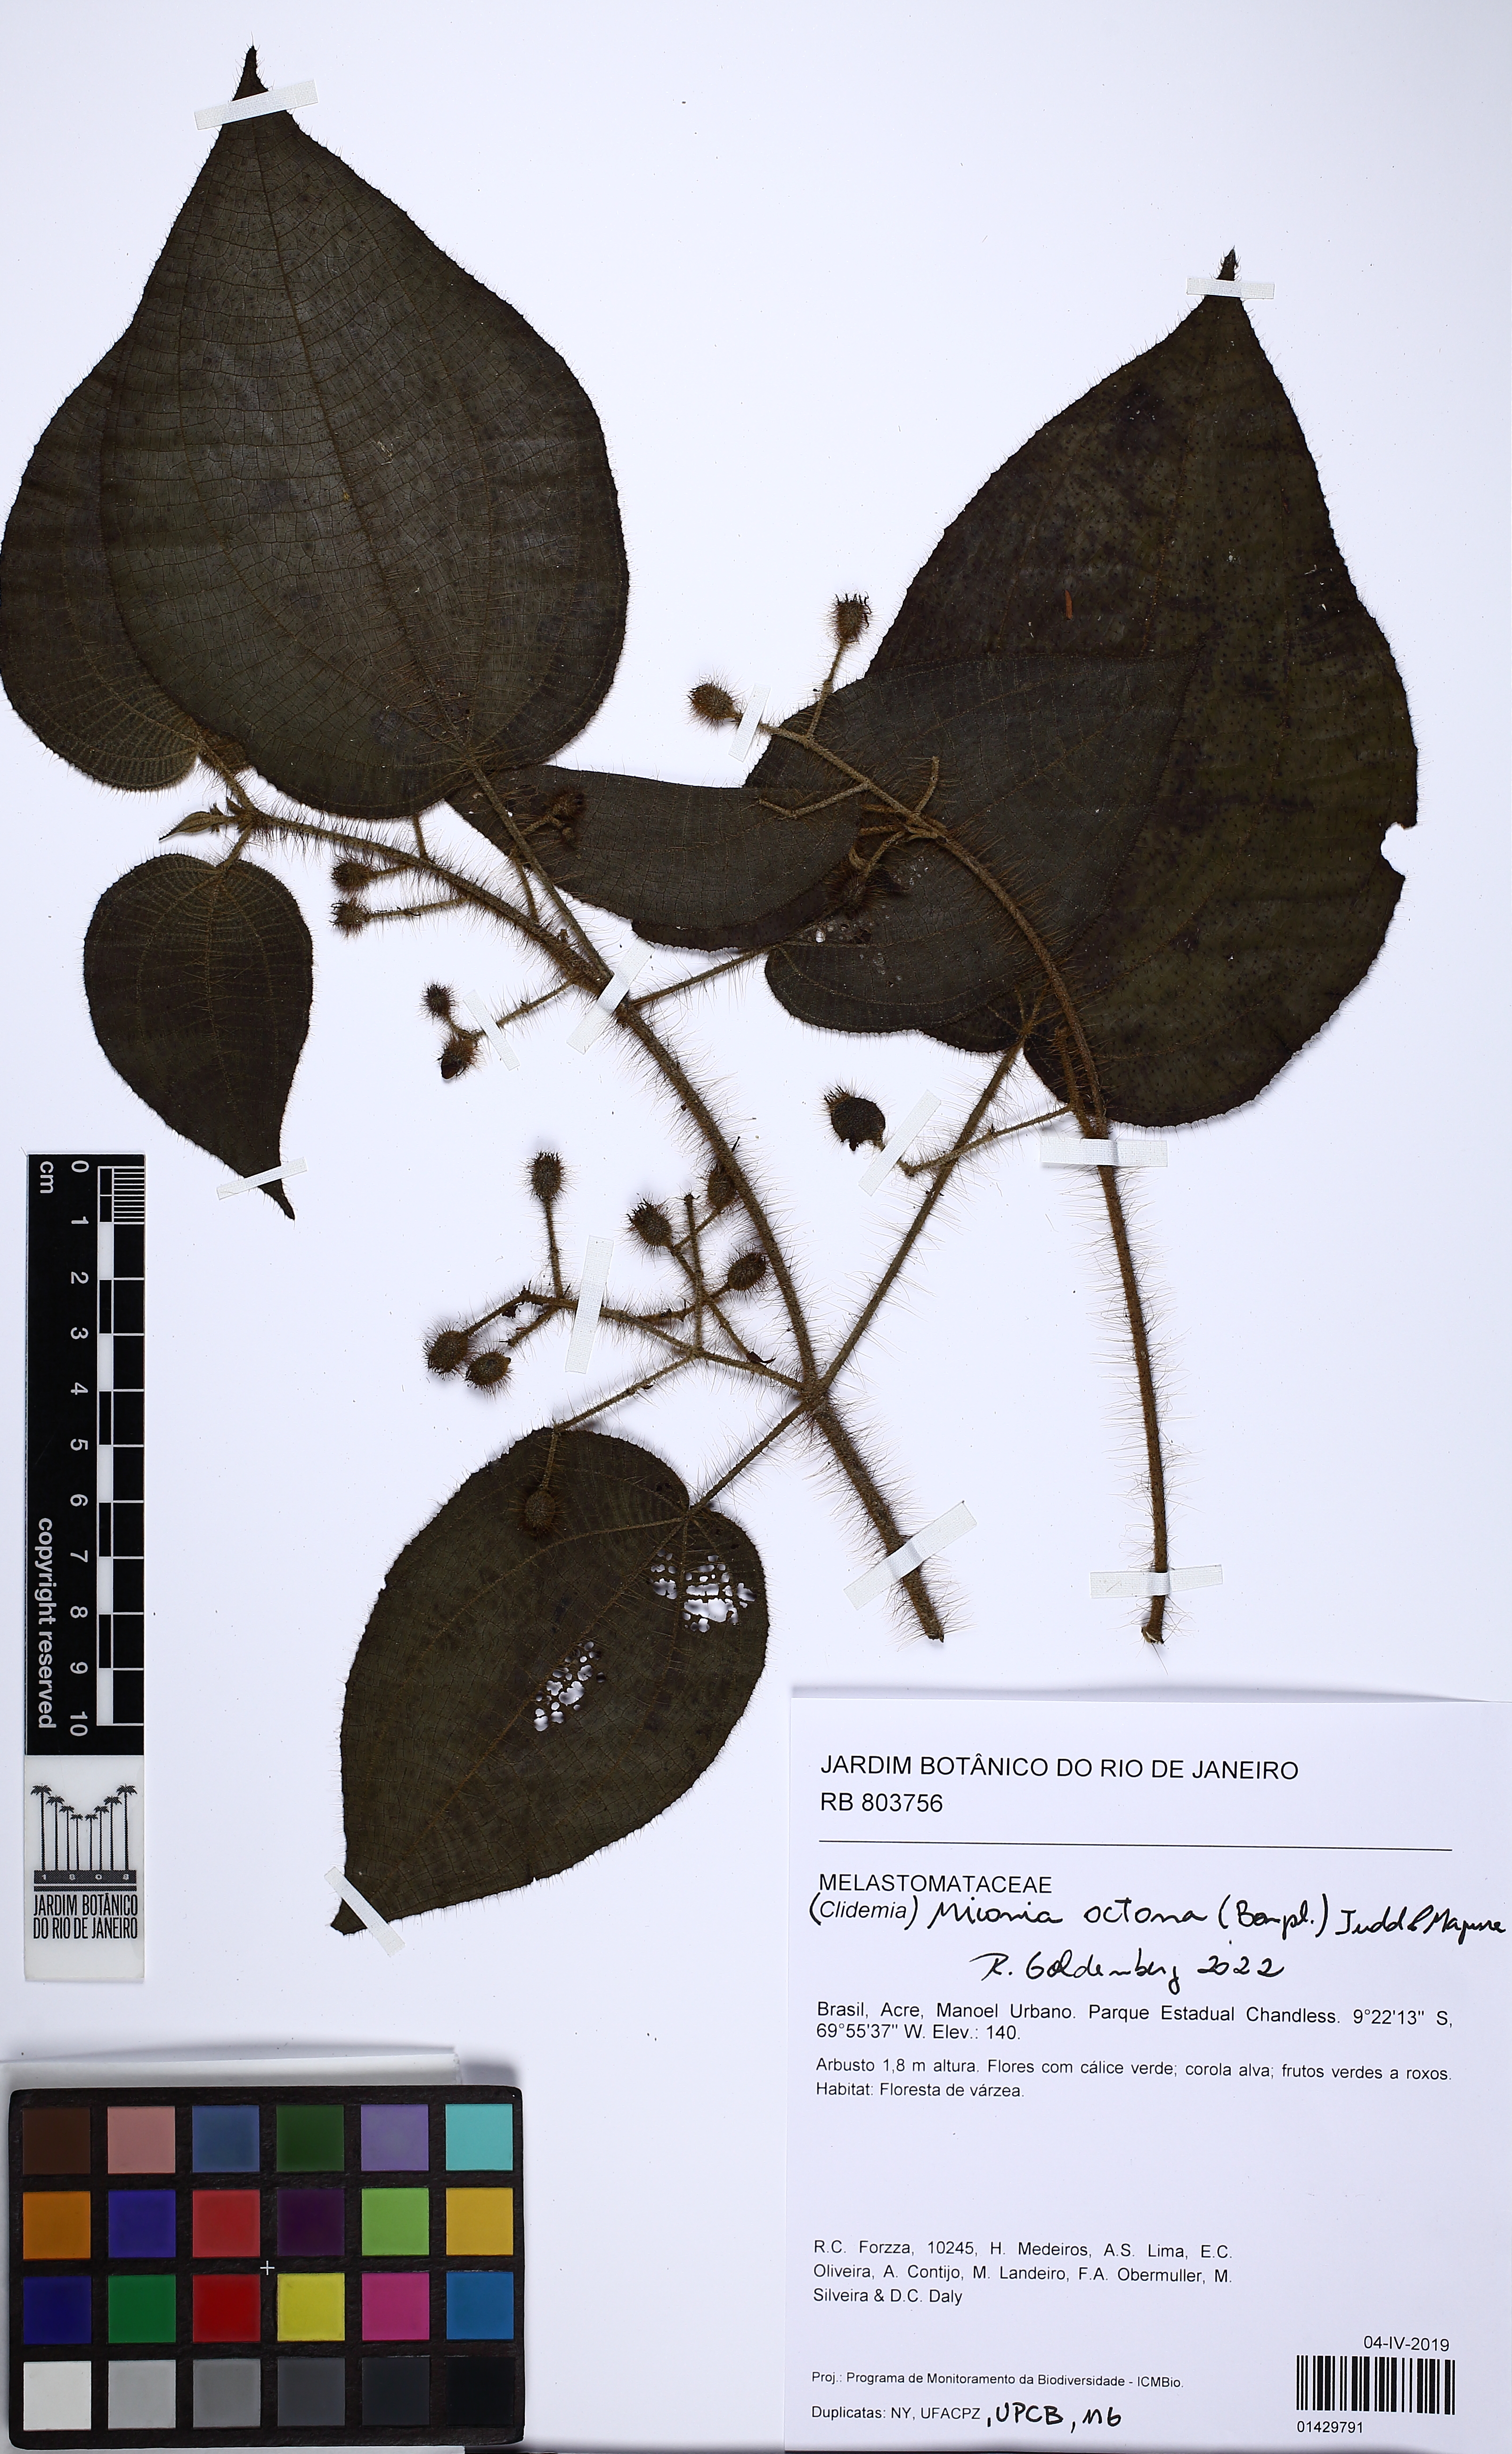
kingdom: Plantae
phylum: Tracheophyta
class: Magnoliopsida
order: Myrtales
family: Melastomataceae
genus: Miconia
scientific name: Miconia octona
